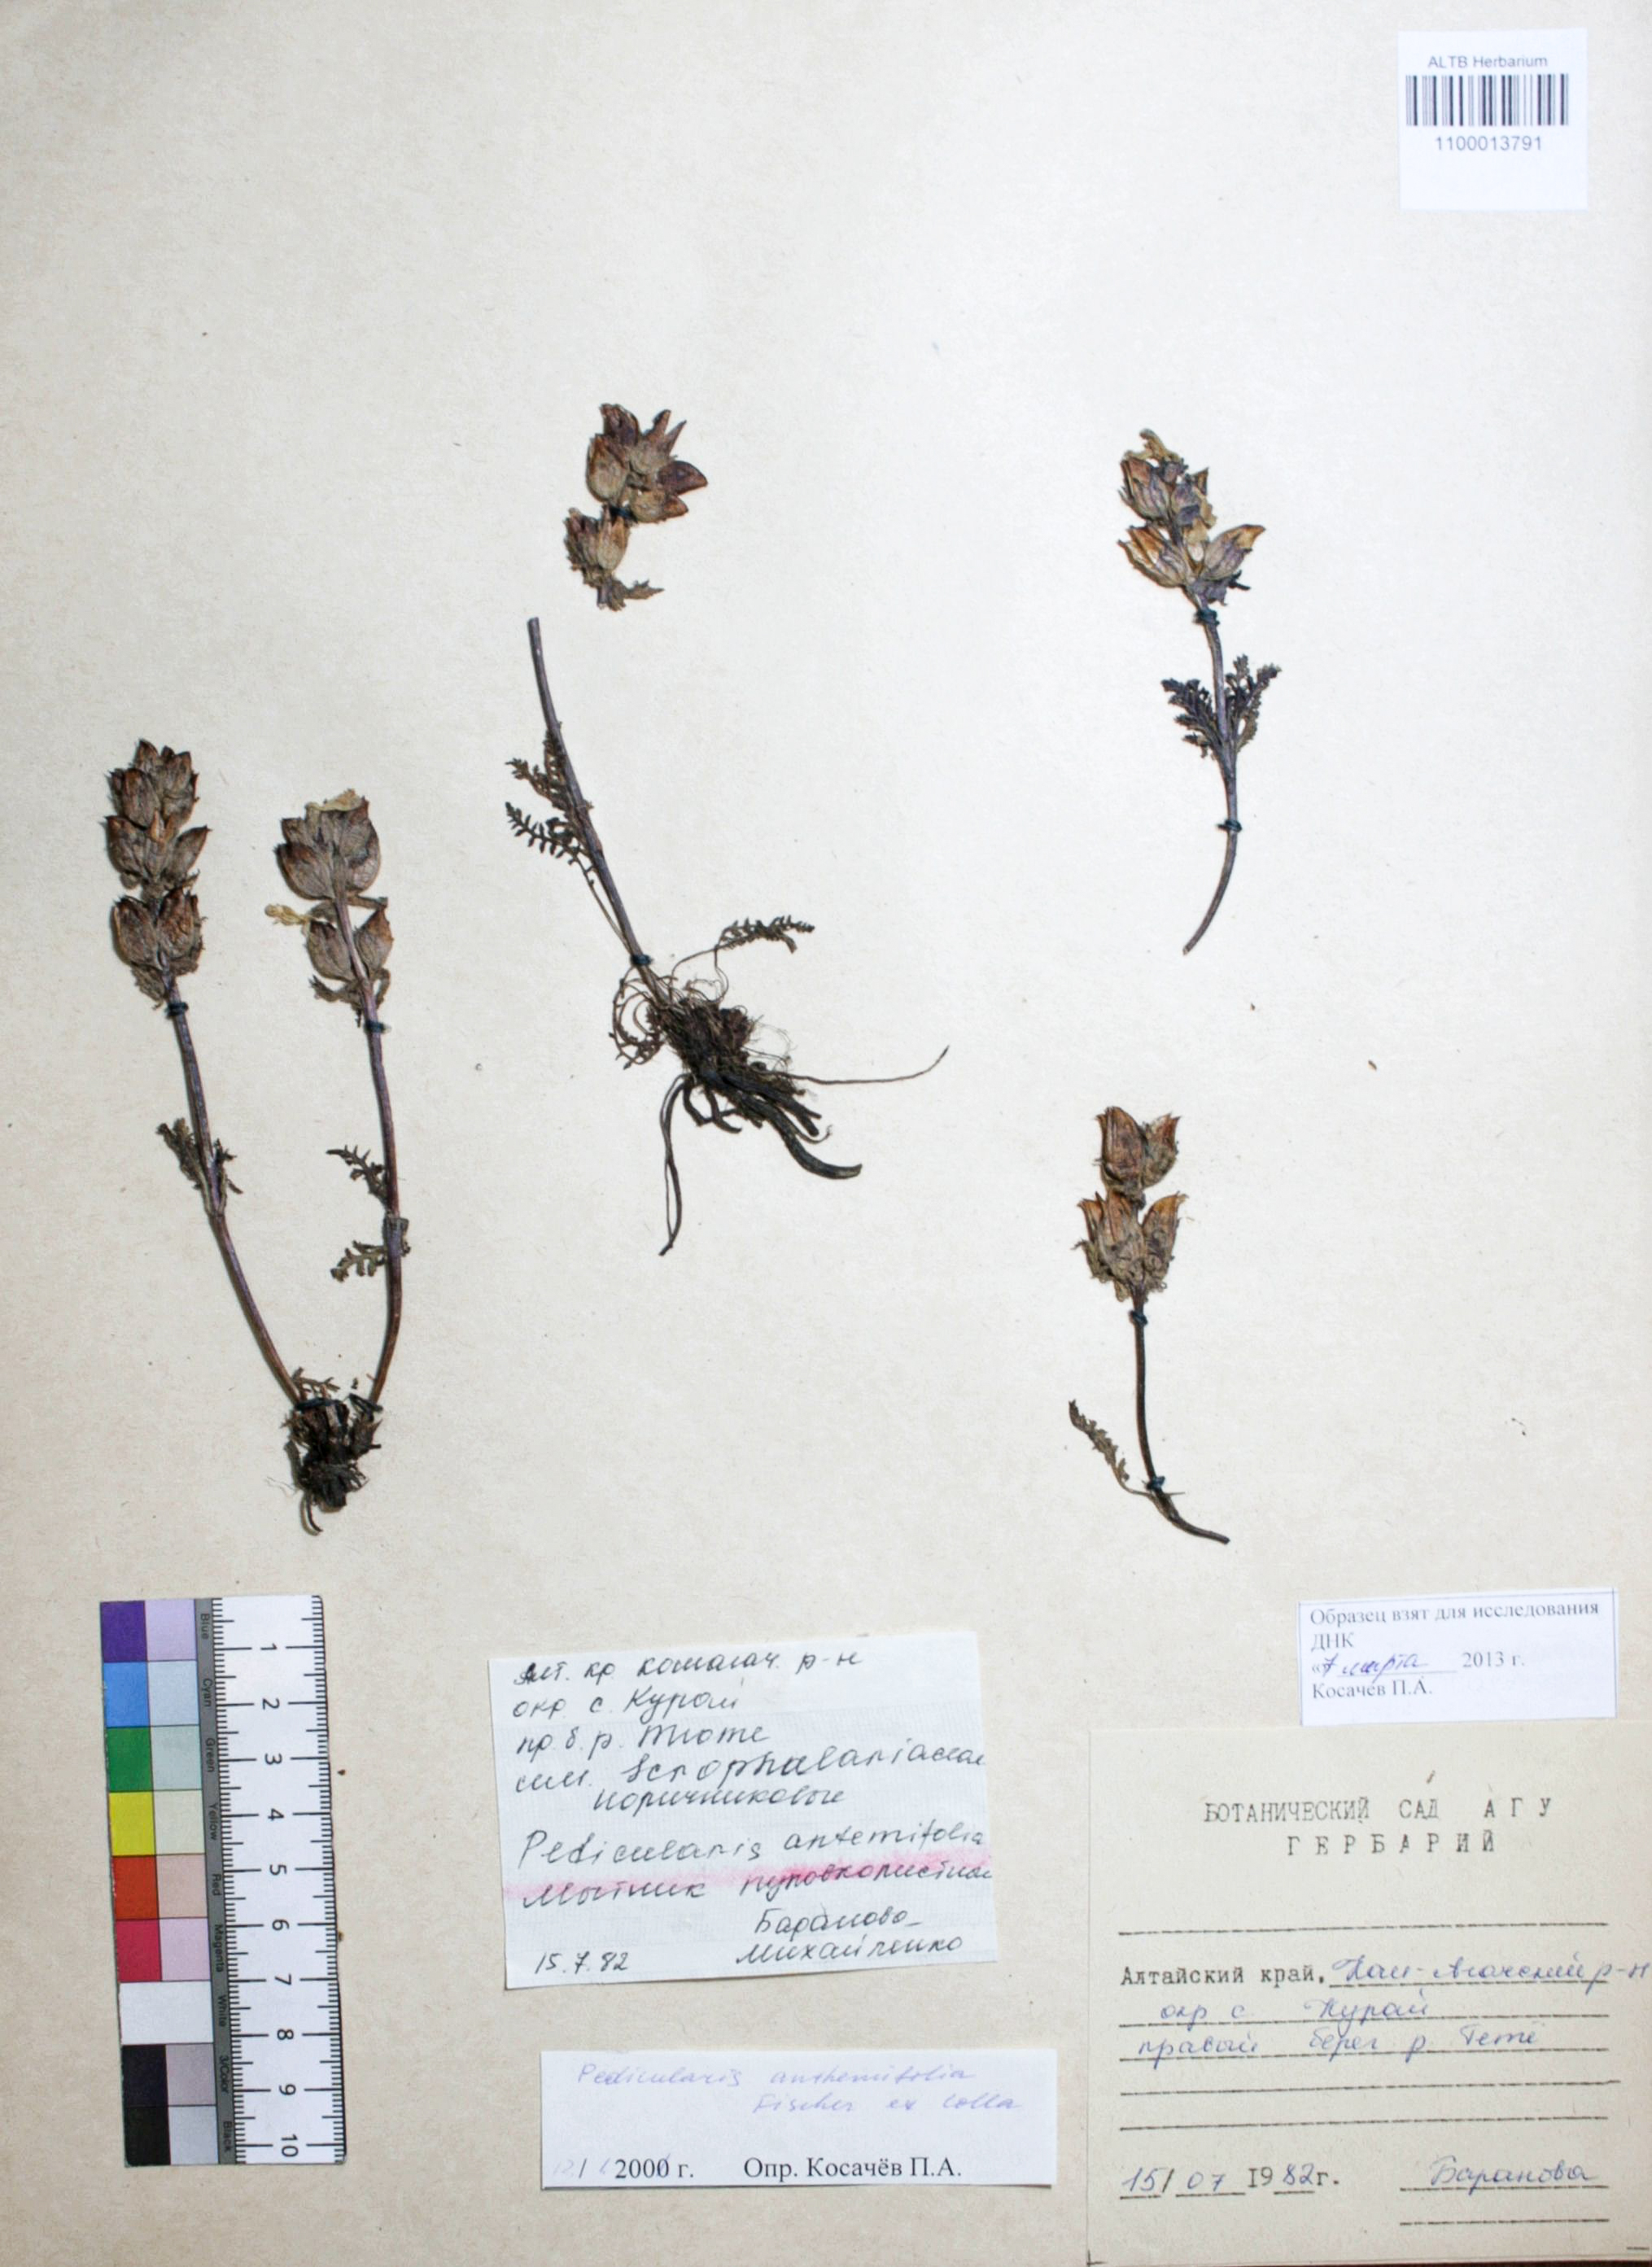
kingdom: Plantae
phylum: Tracheophyta
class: Magnoliopsida
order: Lamiales
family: Orobanchaceae
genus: Pedicularis
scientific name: Pedicularis anthemifolia
